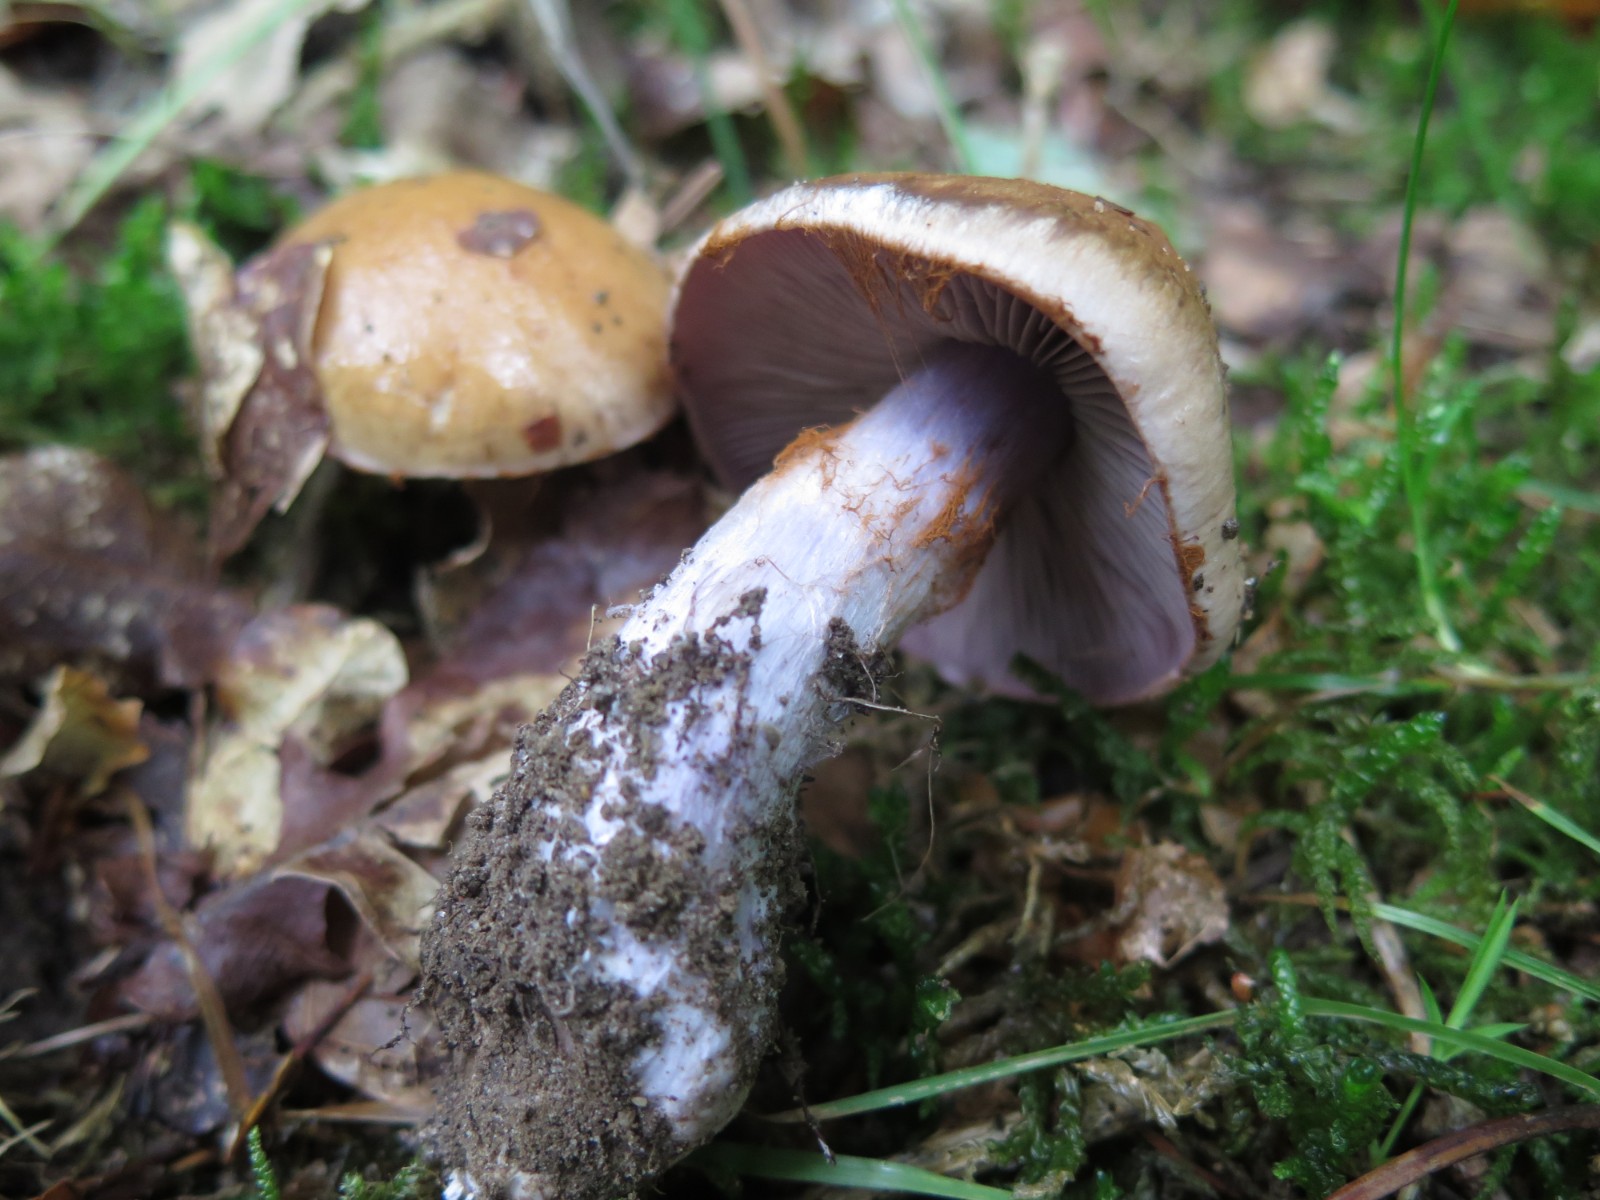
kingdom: Fungi
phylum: Basidiomycota
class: Agaricomycetes
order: Agaricales
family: Cortinariaceae
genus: Thaxterogaster
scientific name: Thaxterogaster subpurpurascens
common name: mørkblånende slørhat
